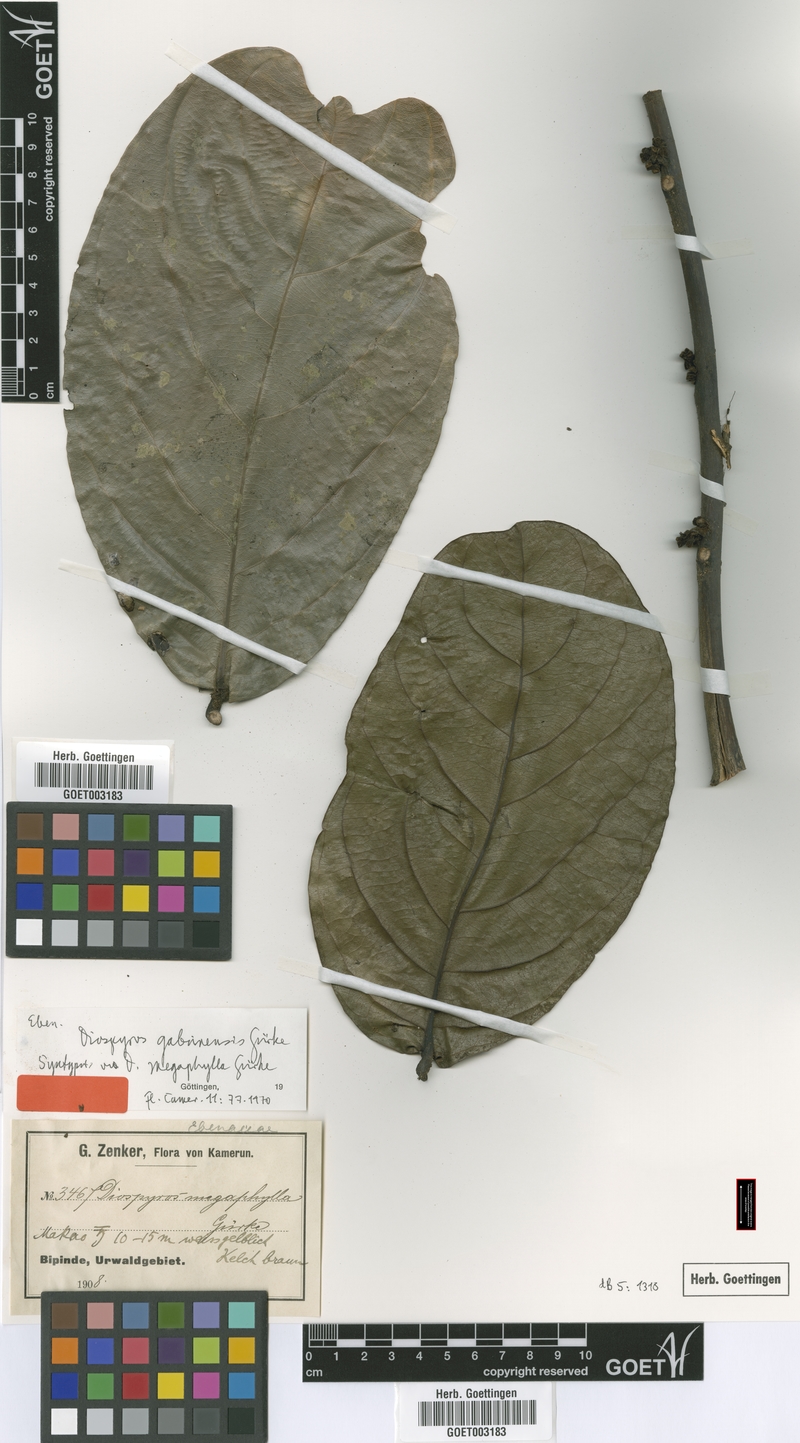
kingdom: Plantae
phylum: Tracheophyta
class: Magnoliopsida
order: Ericales
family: Ebenaceae
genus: Diospyros
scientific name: Diospyros gabunensis
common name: Flint bark tree
